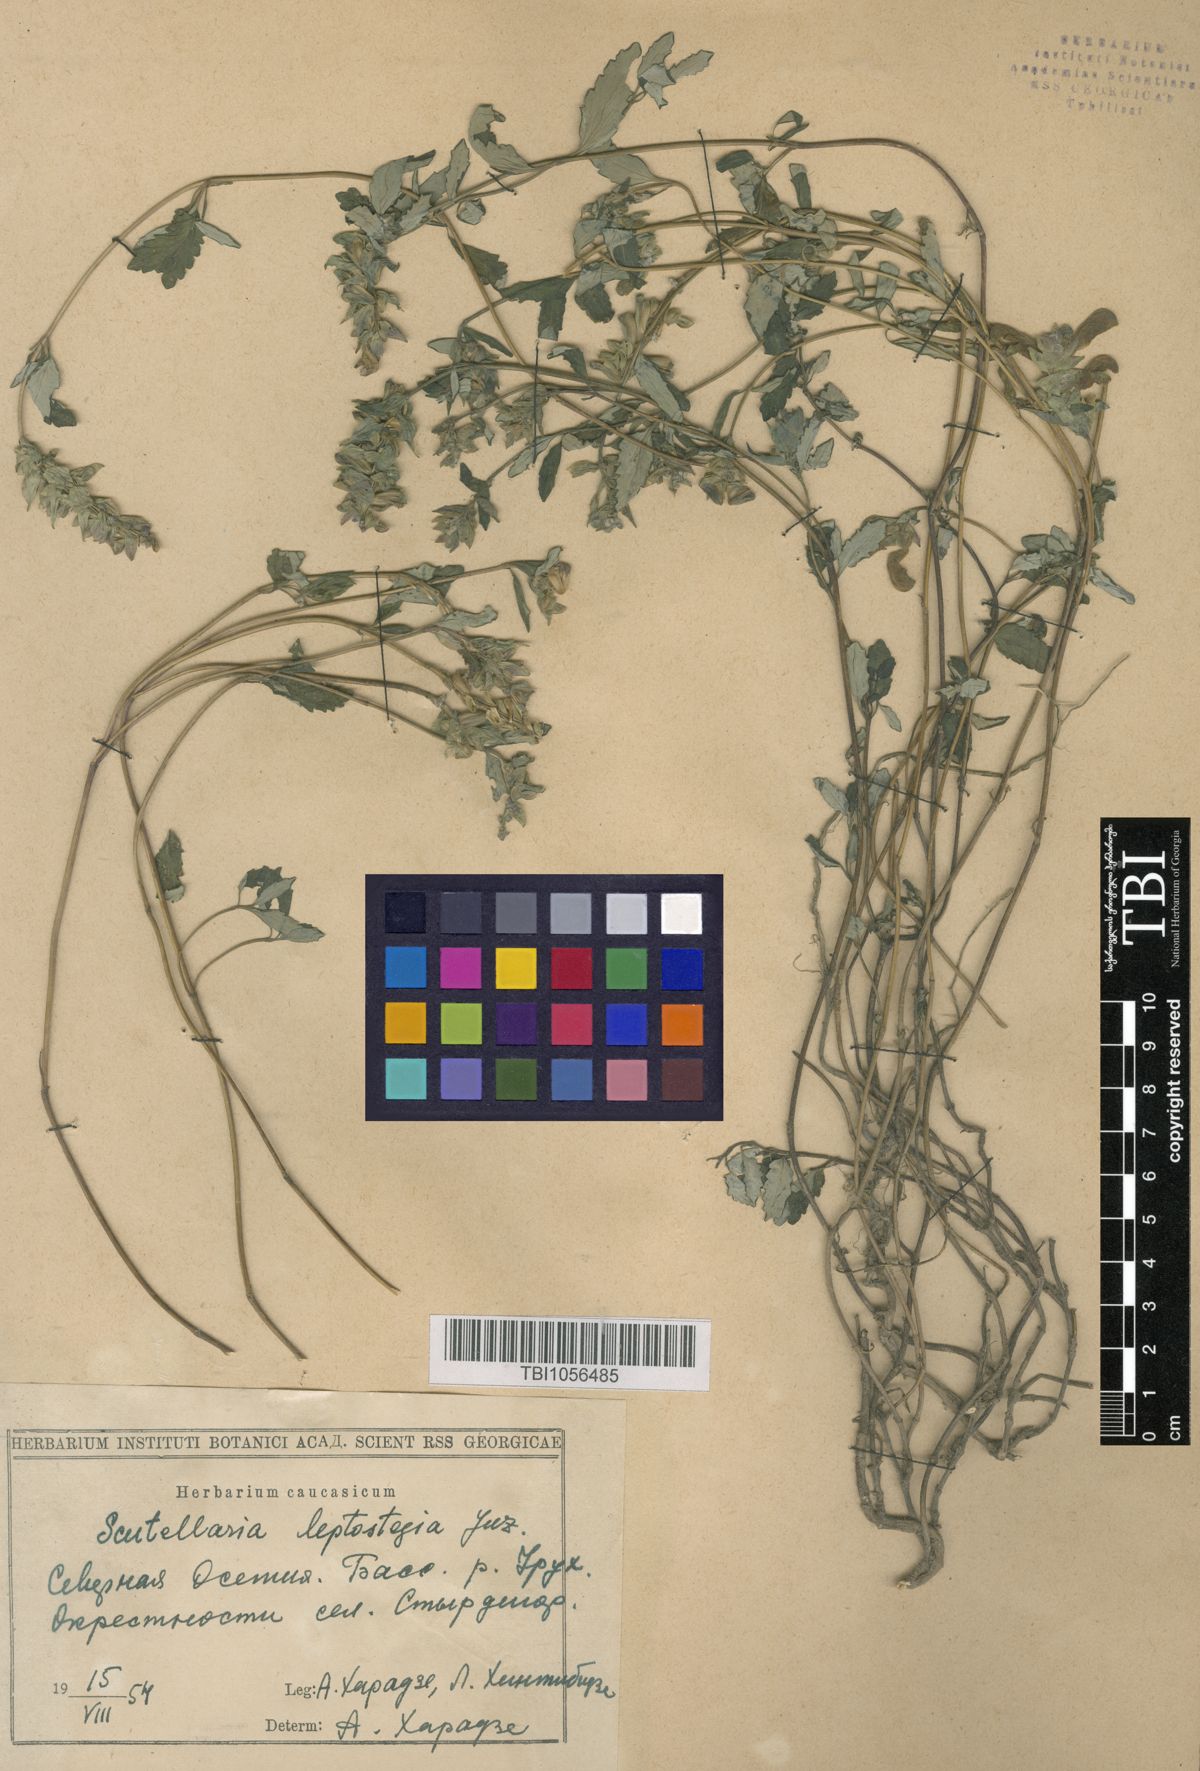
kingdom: Plantae
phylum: Tracheophyta
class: Magnoliopsida
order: Lamiales
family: Lamiaceae
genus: Scutellaria
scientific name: Scutellaria leptostegia
